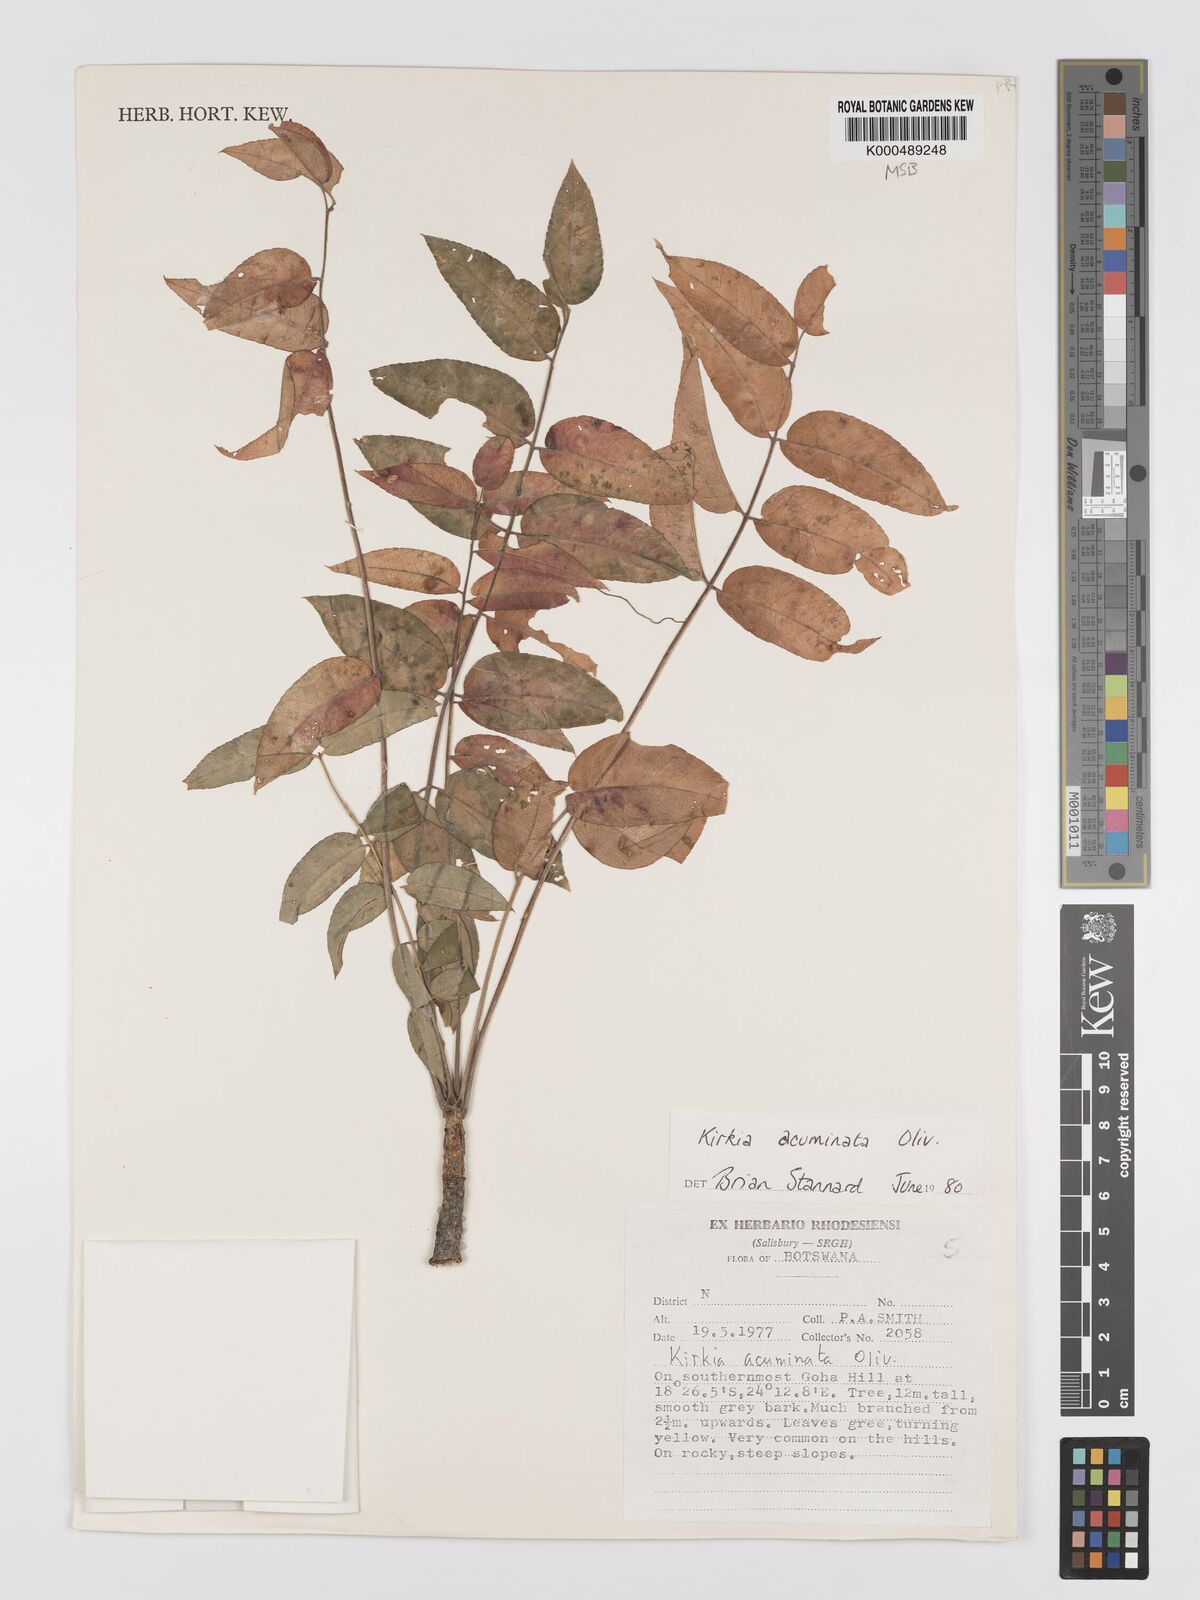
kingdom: Plantae
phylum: Tracheophyta
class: Magnoliopsida
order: Sapindales
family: Kirkiaceae
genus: Kirkia
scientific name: Kirkia acuminata
